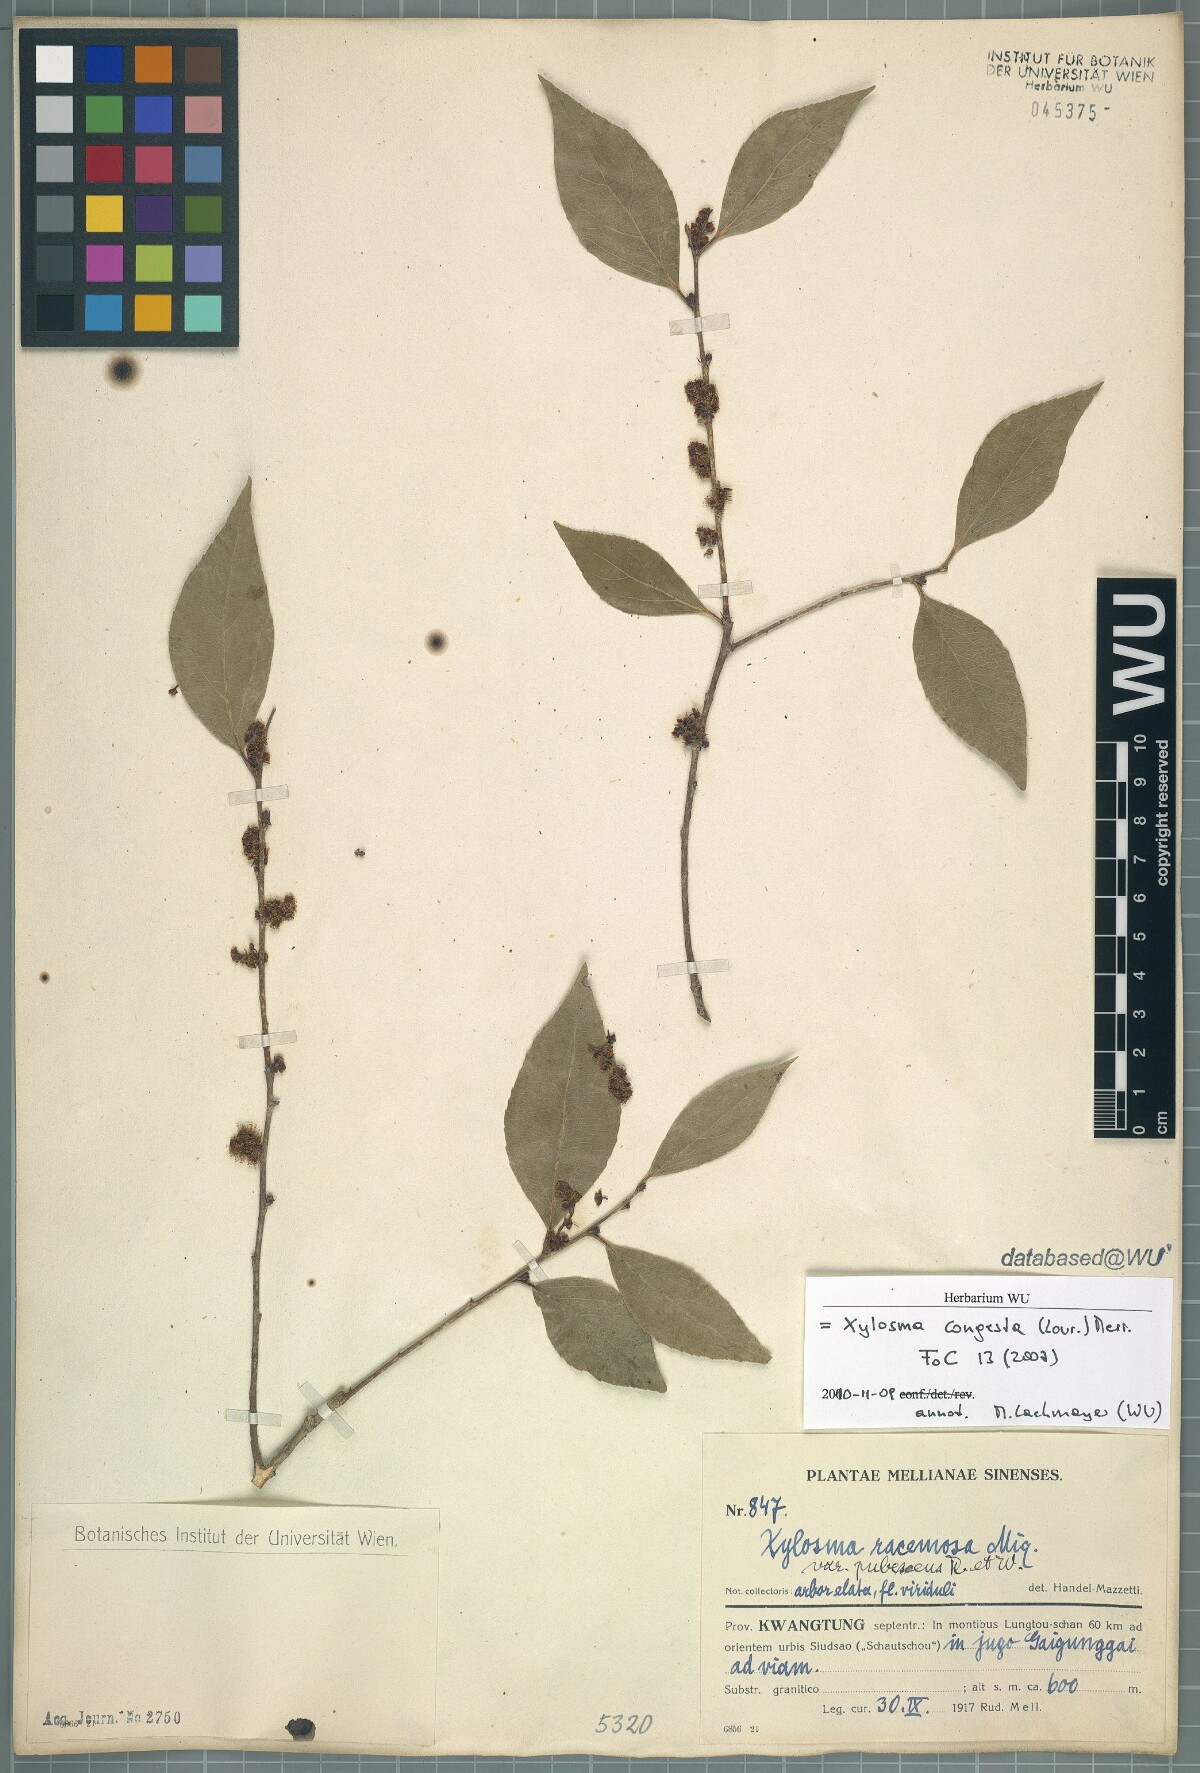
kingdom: Plantae
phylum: Tracheophyta
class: Magnoliopsida
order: Malpighiales
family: Salicaceae
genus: Xylosma
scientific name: Xylosma racemosum
